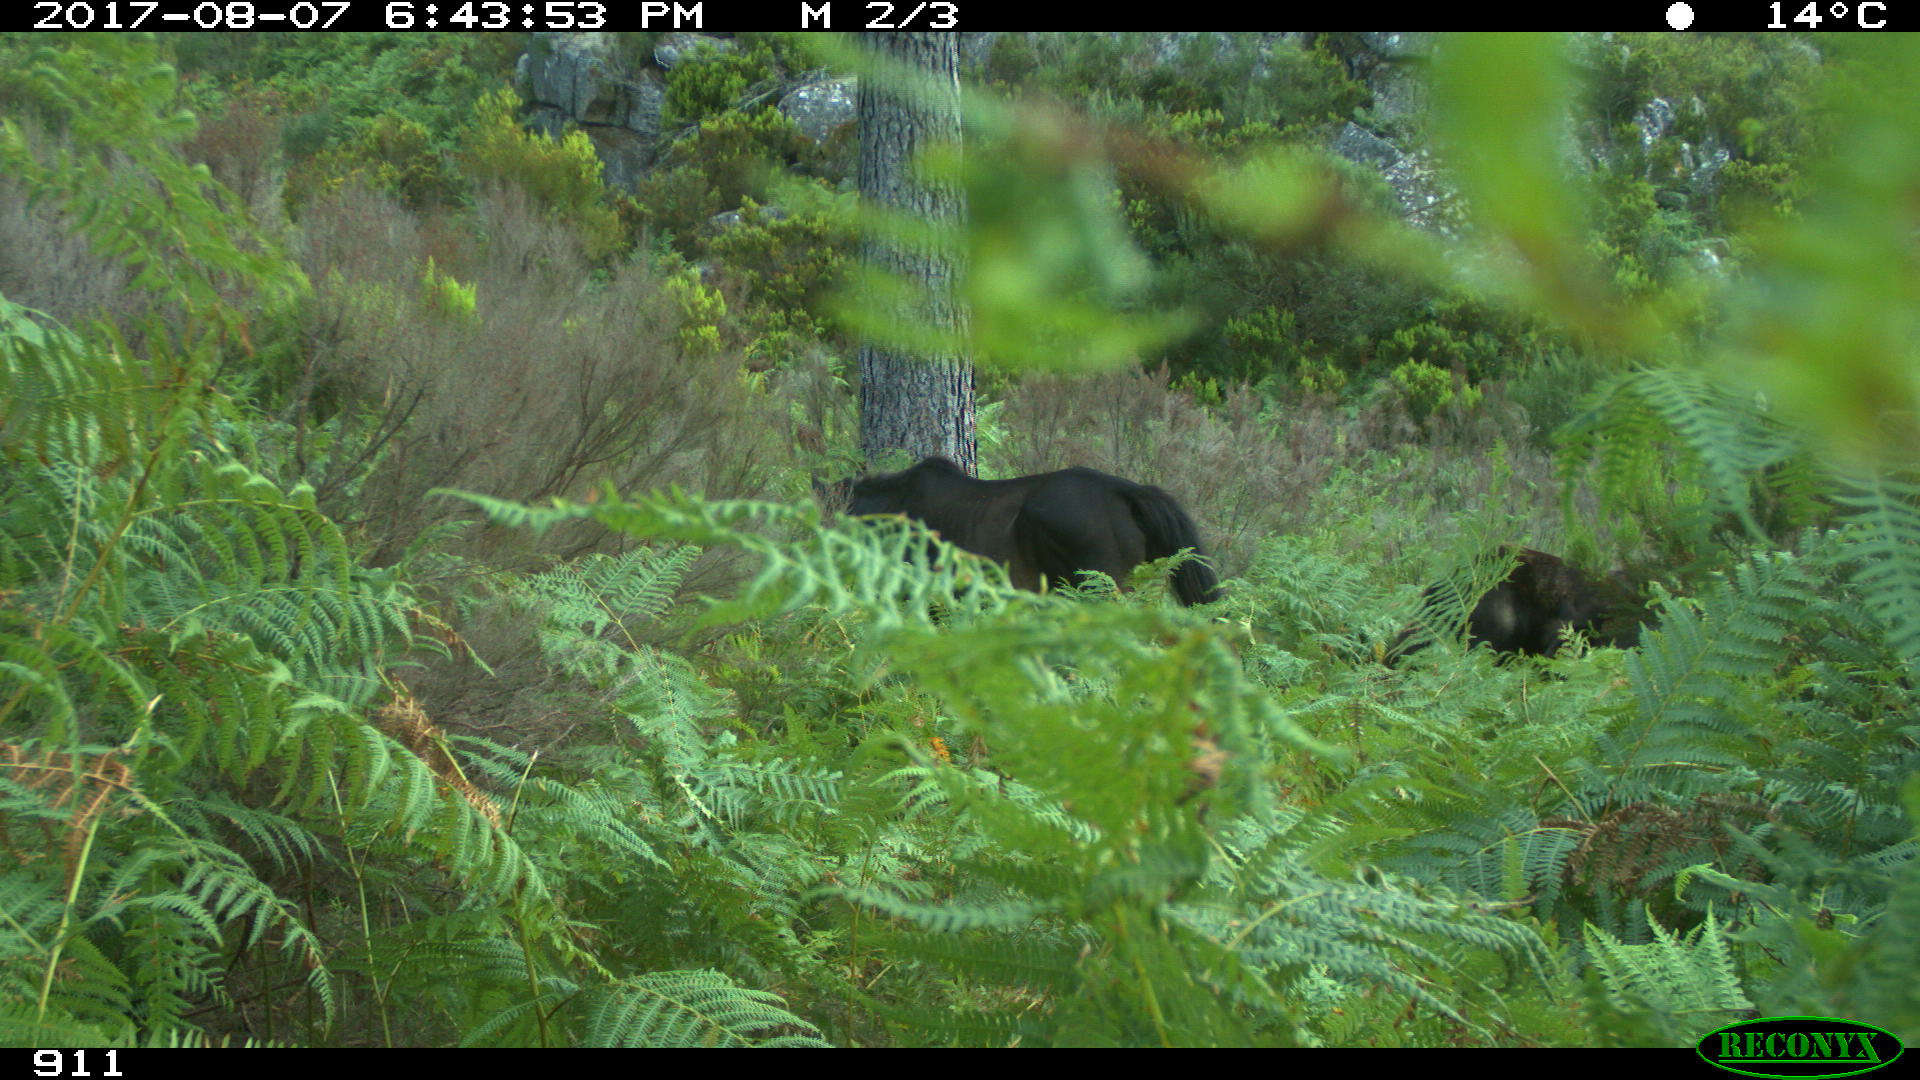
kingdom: Animalia
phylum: Chordata
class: Mammalia
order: Perissodactyla
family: Equidae
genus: Equus
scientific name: Equus caballus
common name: Horse
